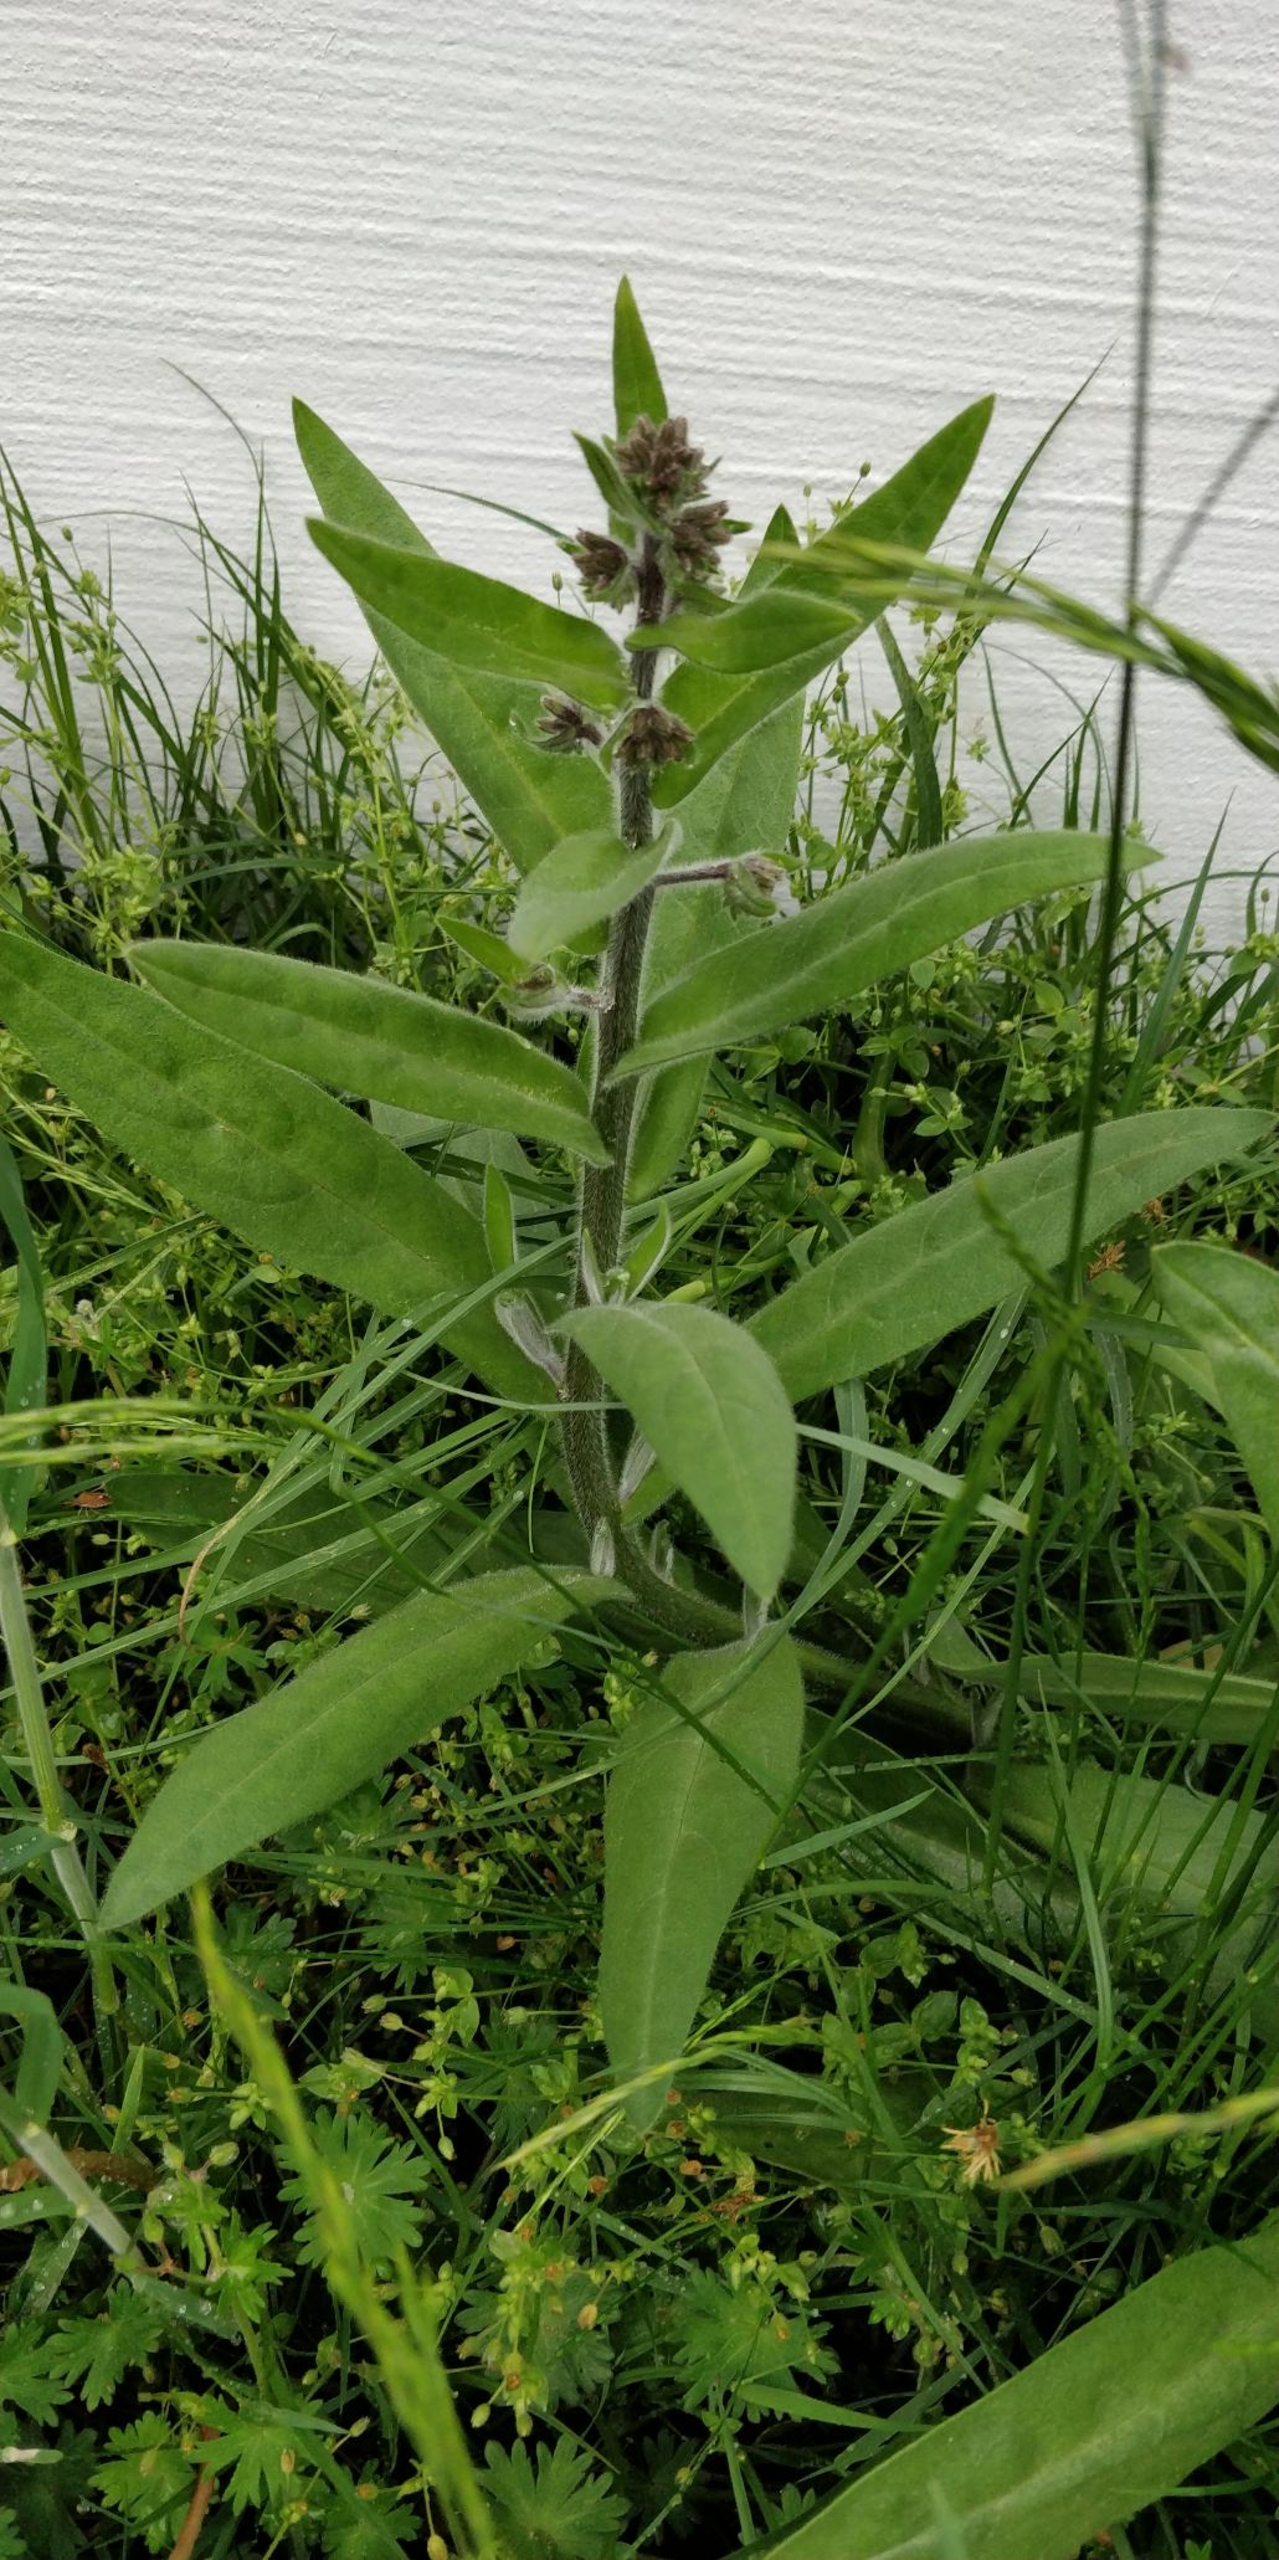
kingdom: Plantae
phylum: Tracheophyta
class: Magnoliopsida
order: Boraginales
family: Boraginaceae
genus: Anchusa
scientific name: Anchusa officinalis
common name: Læge-oksetunge
